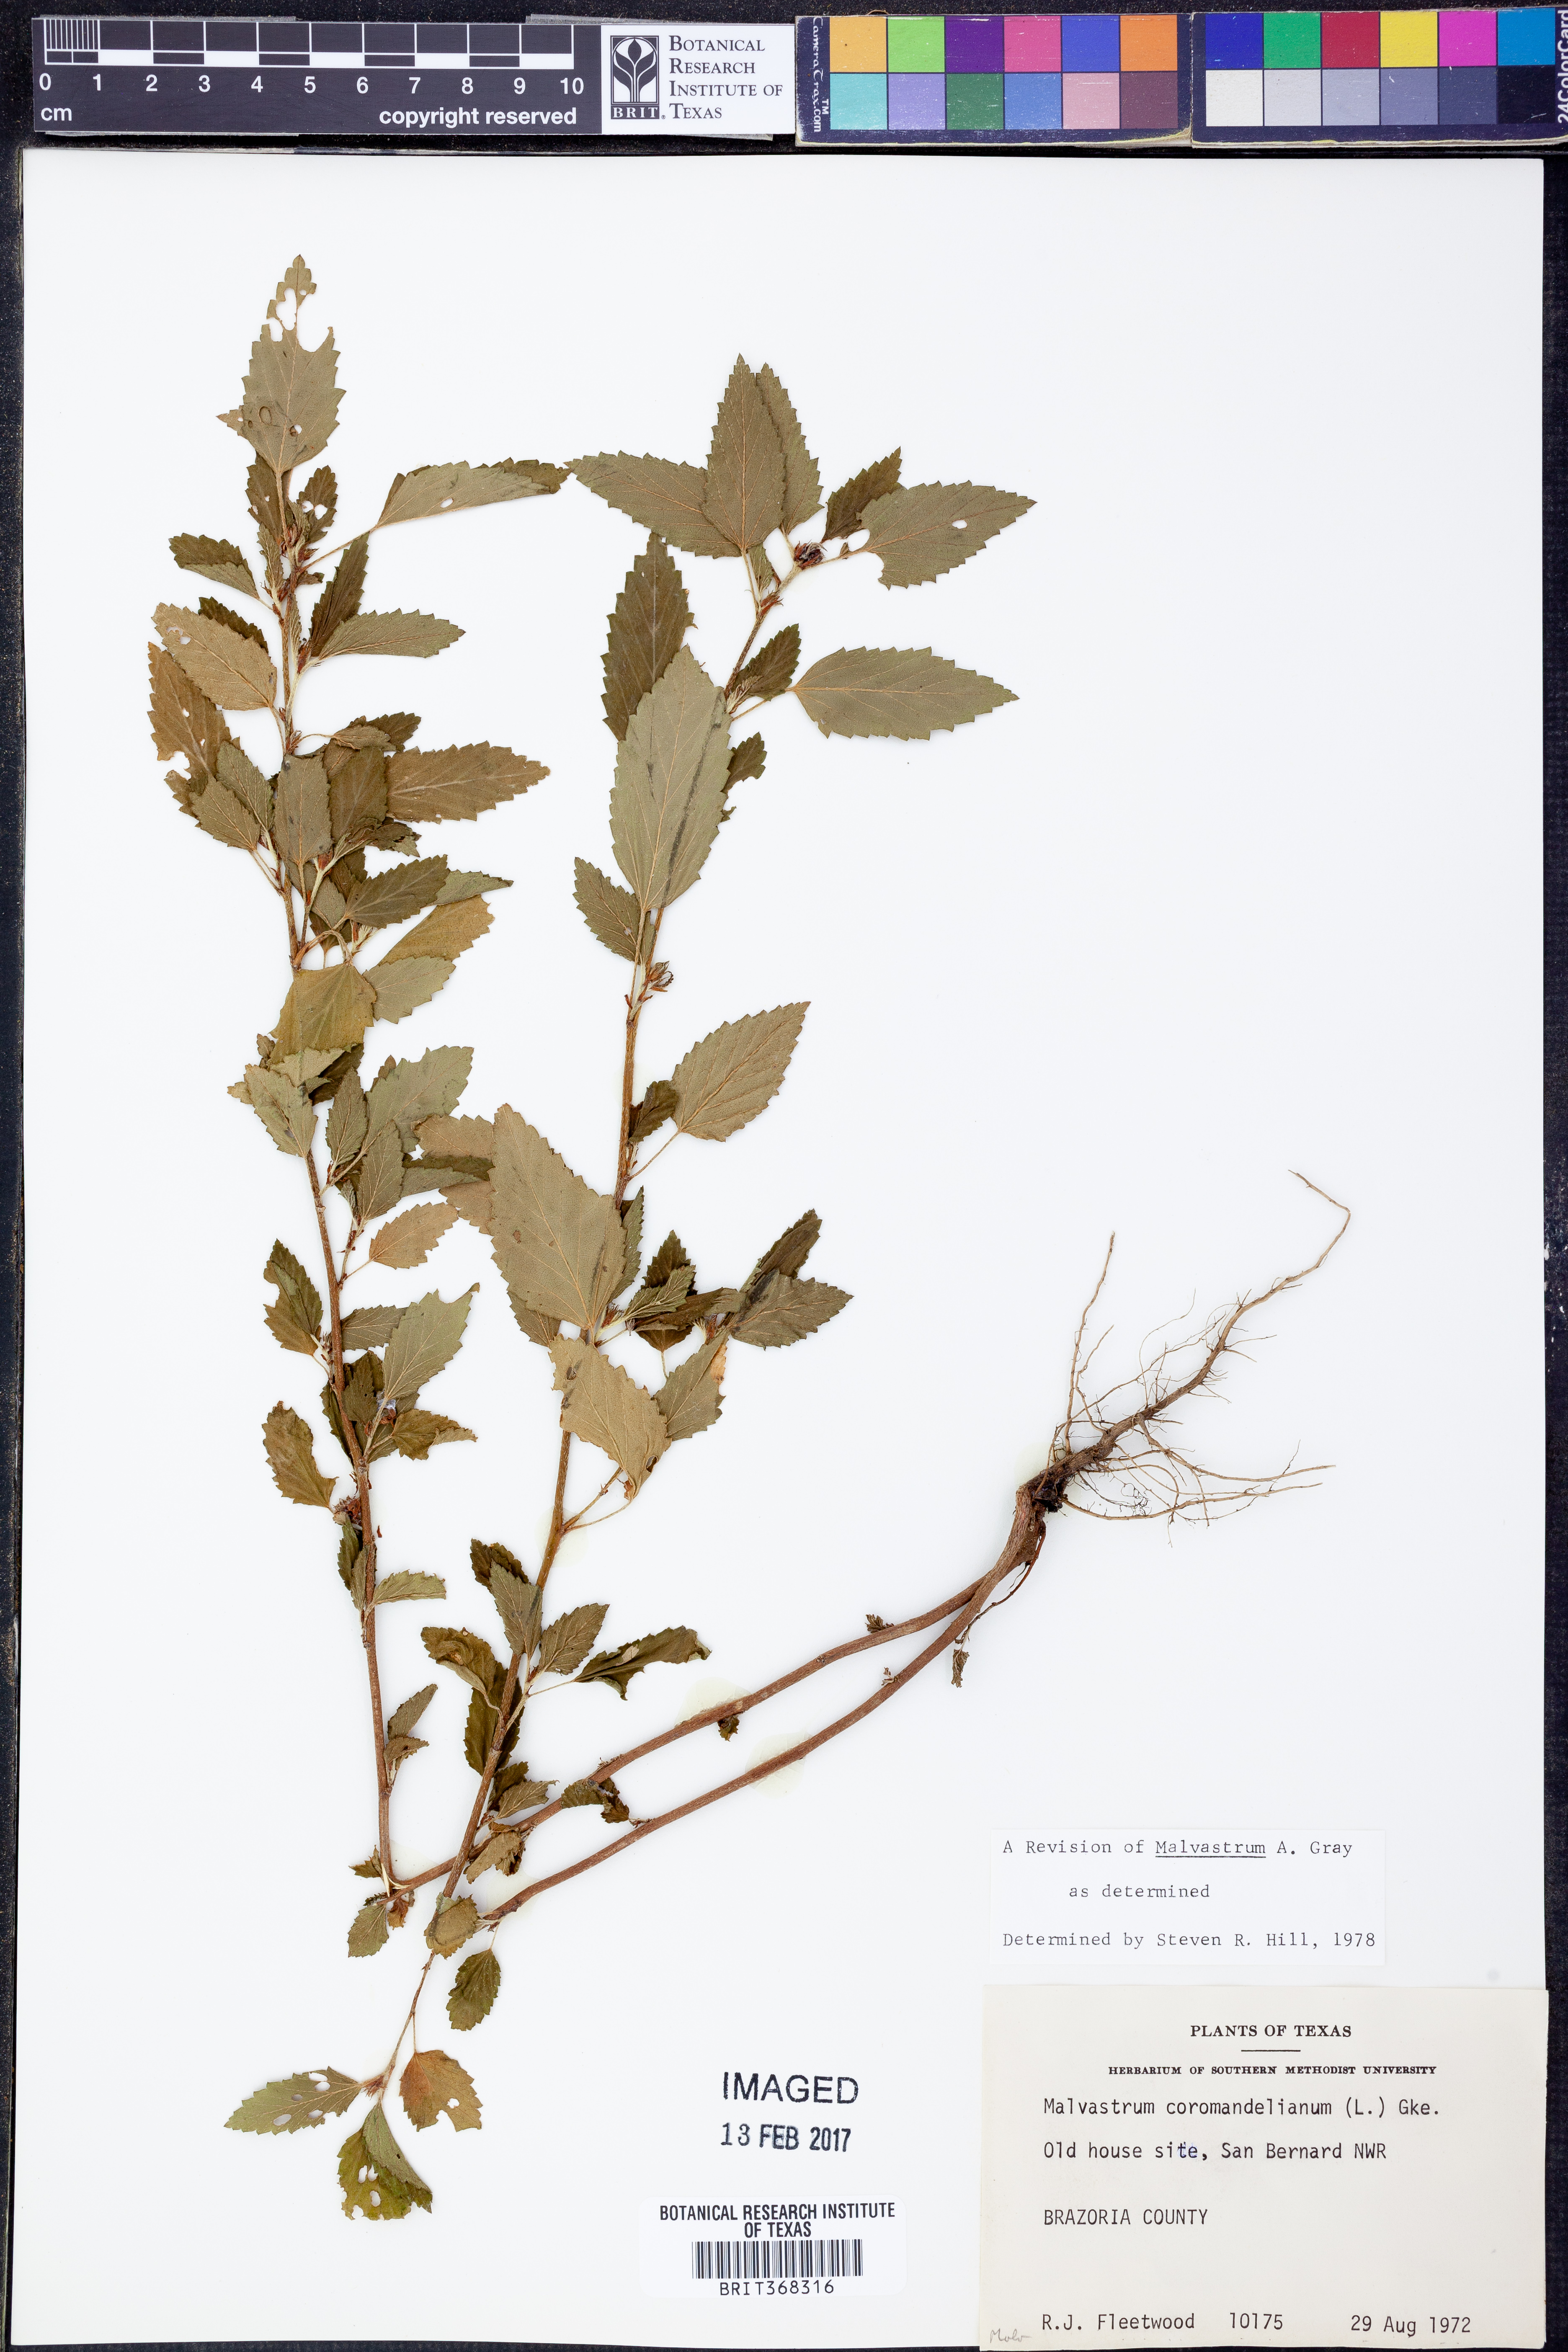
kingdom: Plantae
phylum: Tracheophyta
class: Magnoliopsida
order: Malvales
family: Malvaceae
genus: Malvastrum
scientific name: Malvastrum coromandelianum
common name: Threelobe false mallow
